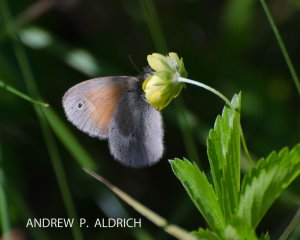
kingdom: Animalia
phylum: Arthropoda
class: Insecta
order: Lepidoptera
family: Nymphalidae
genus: Coenonympha
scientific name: Coenonympha tullia
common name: Large Heath
